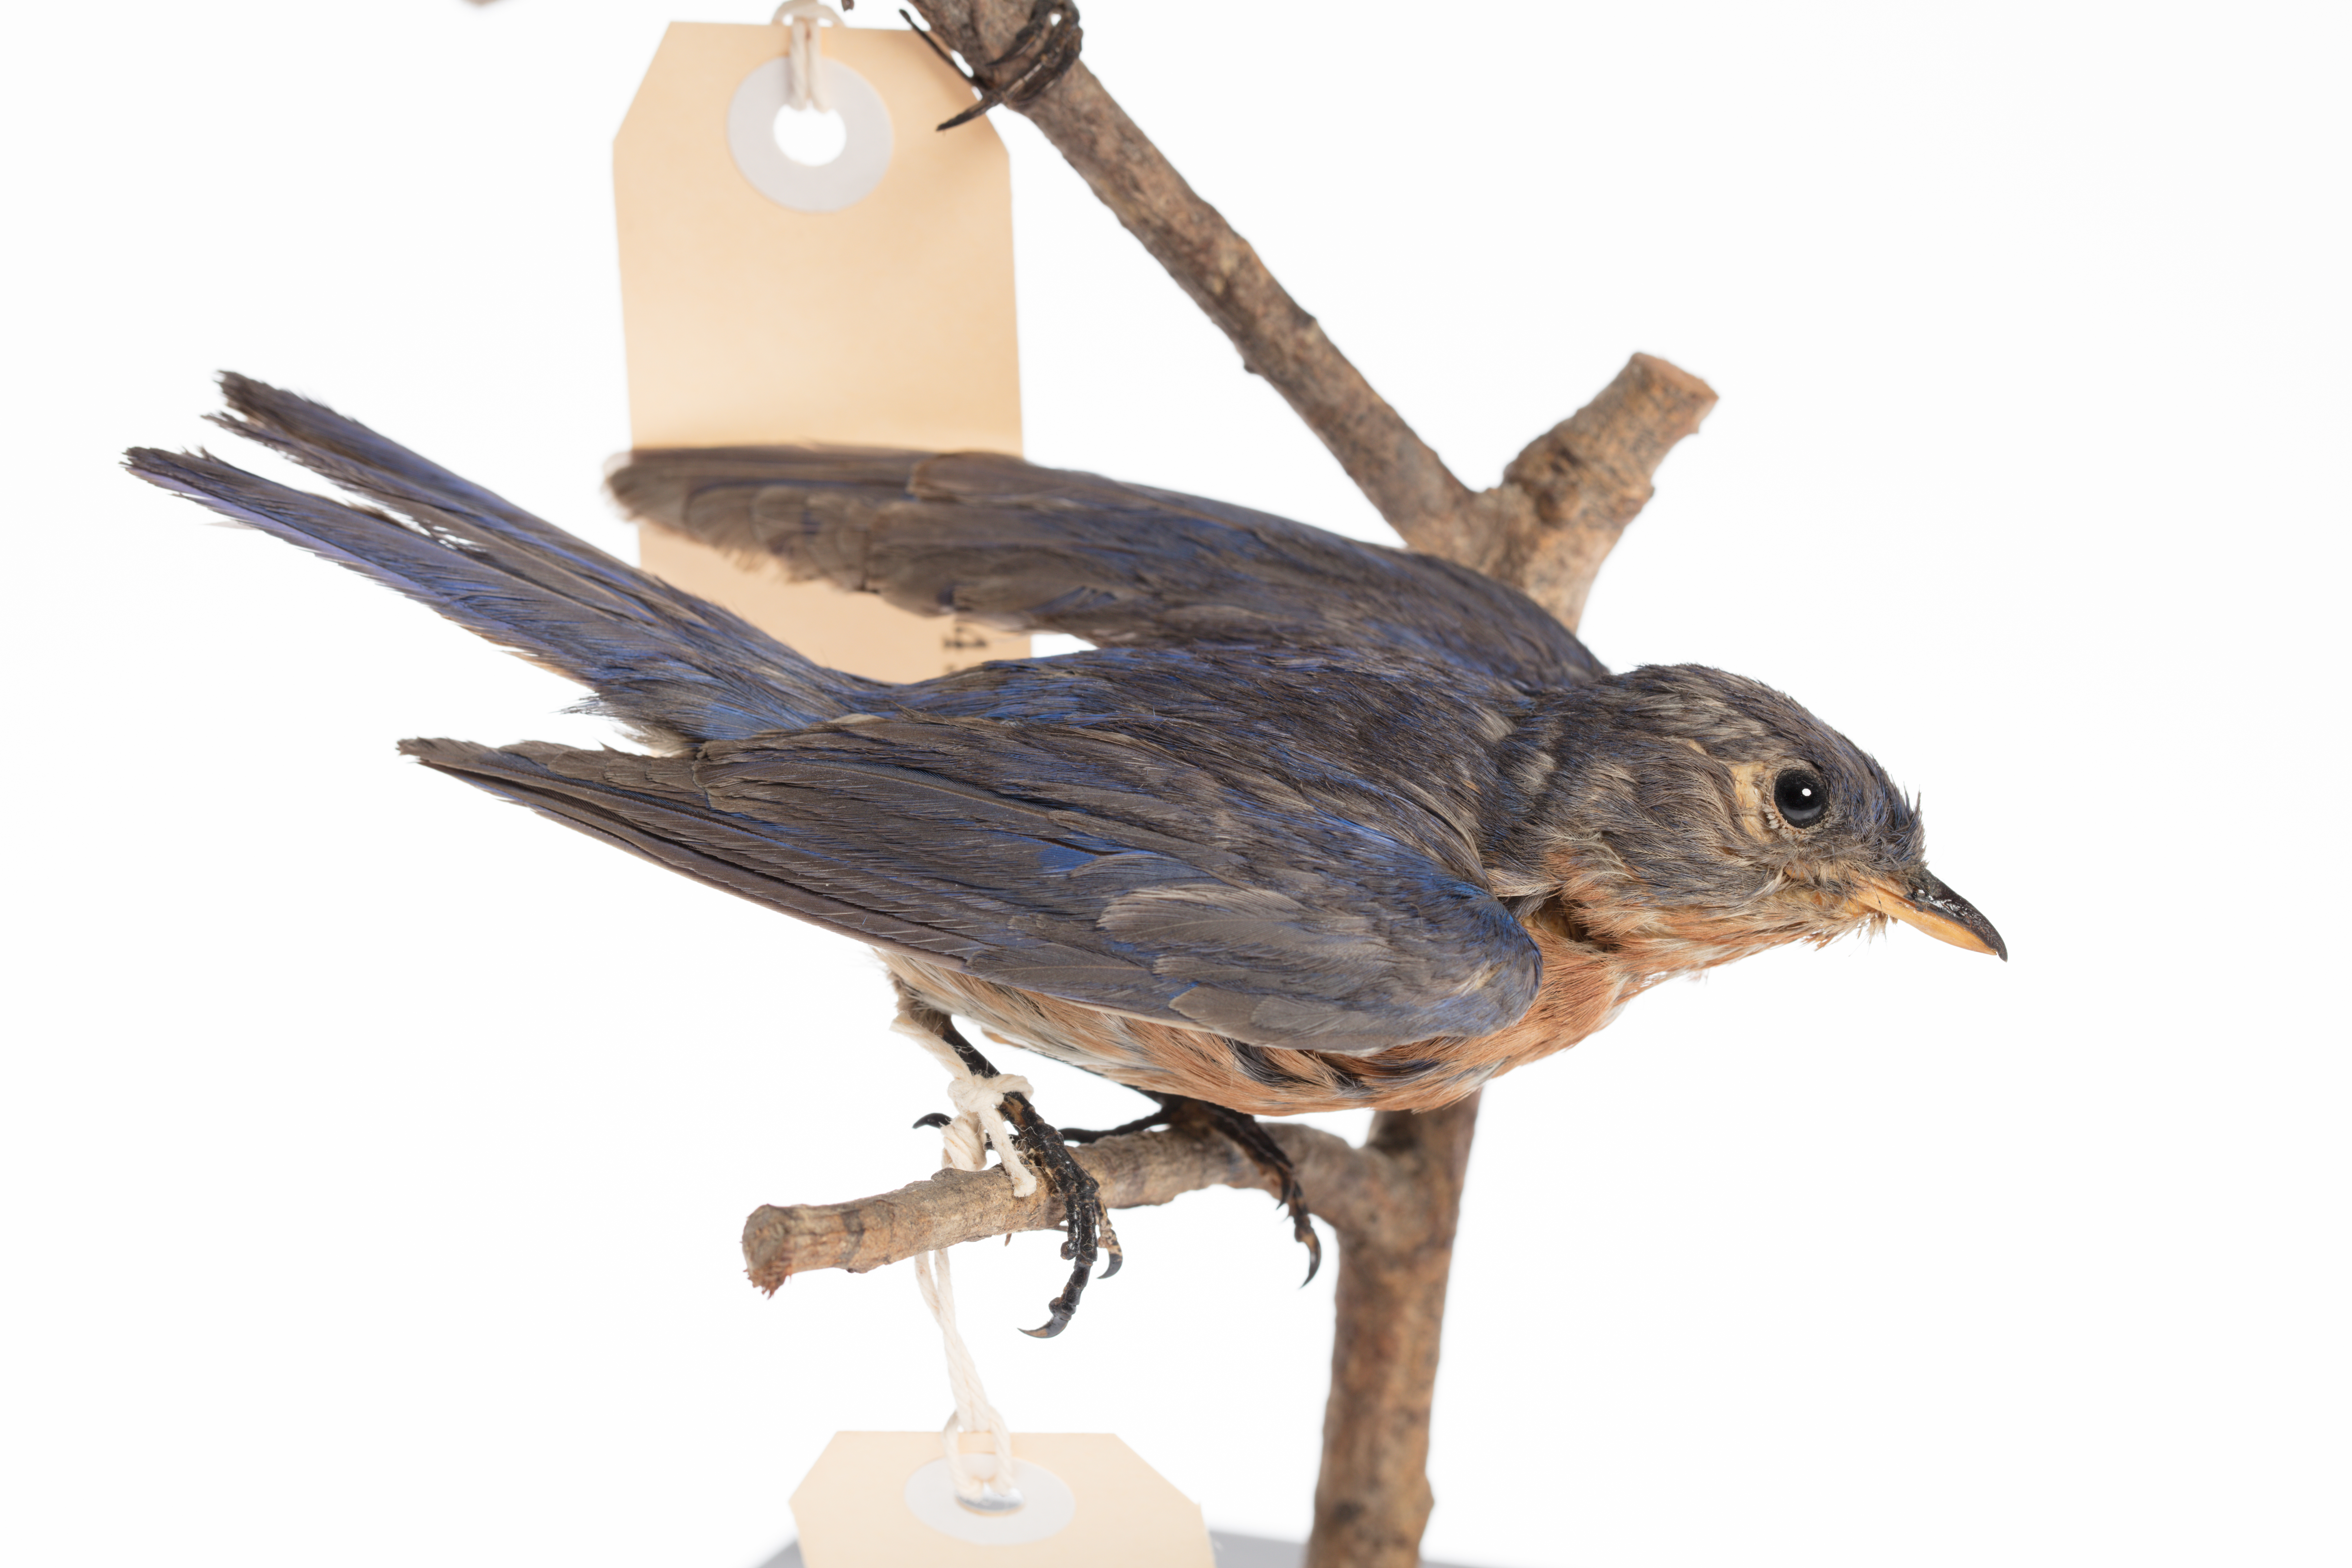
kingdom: Animalia
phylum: Chordata
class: Aves
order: Passeriformes
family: Turdidae
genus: Sialia
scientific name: Sialia sialis
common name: Eastern bluebird
